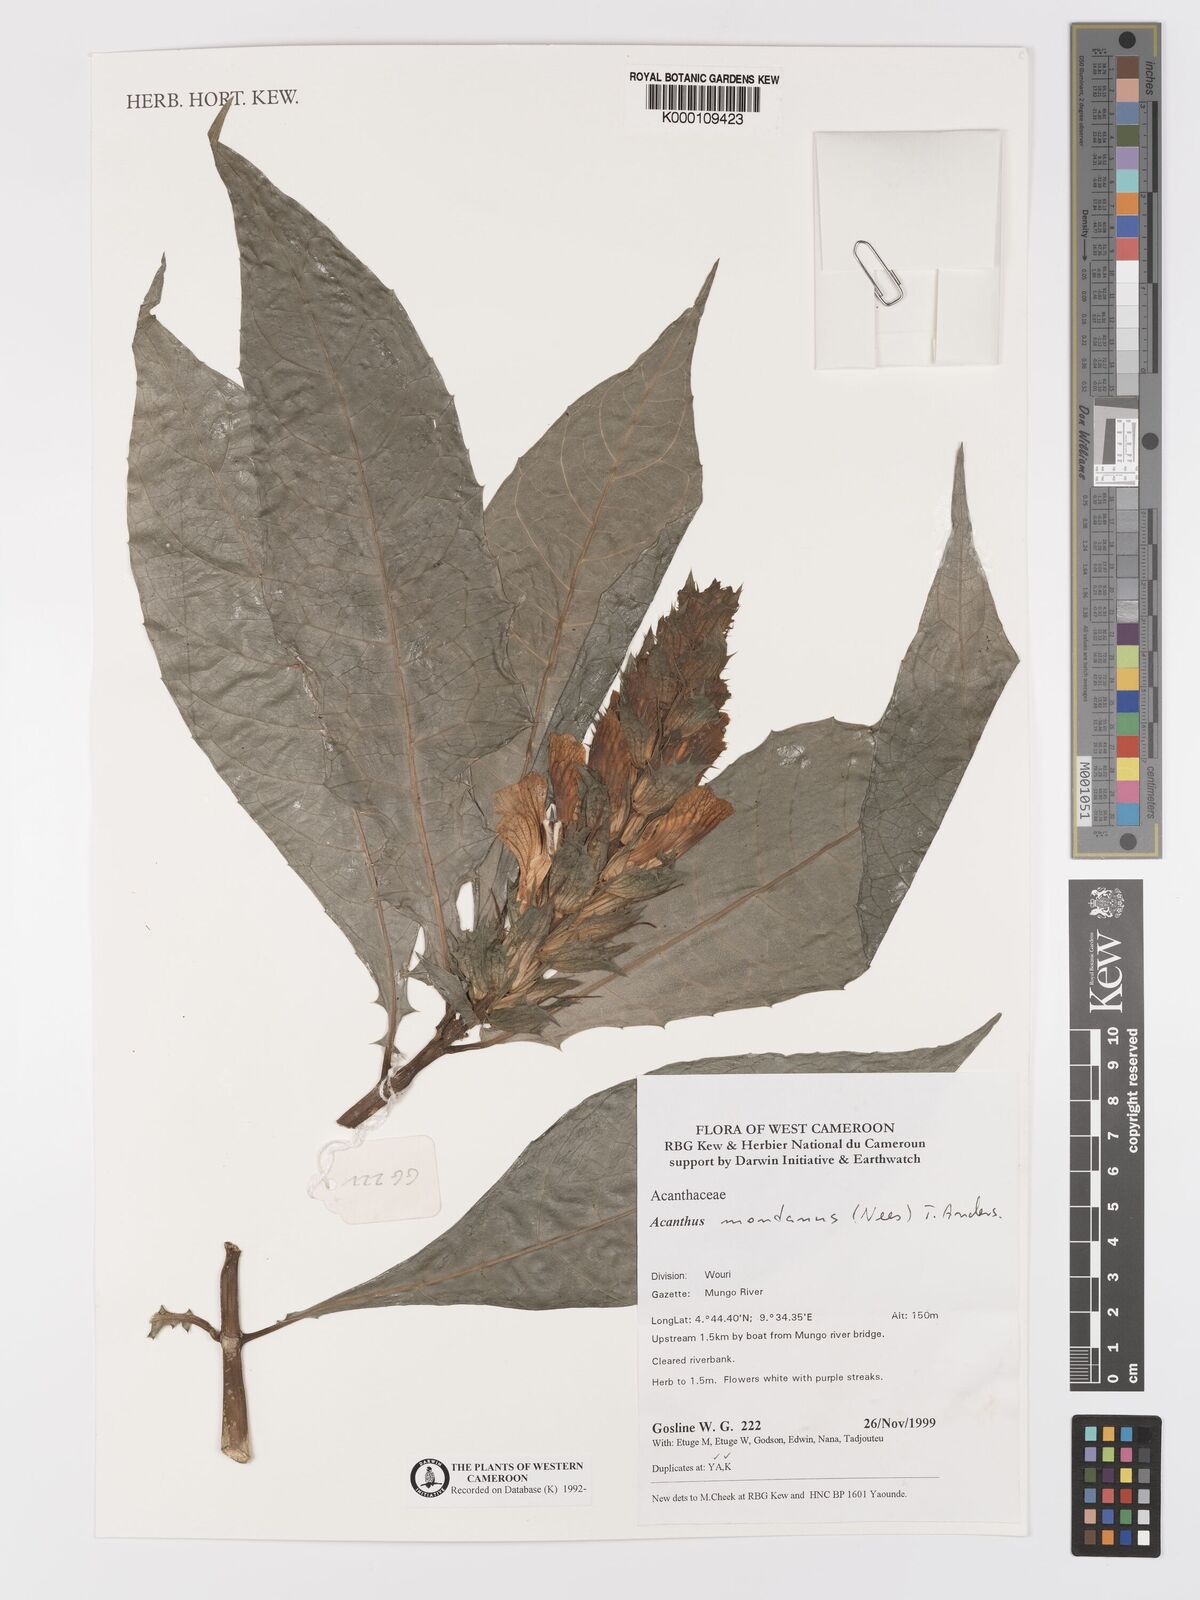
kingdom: Plantae
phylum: Tracheophyta
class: Magnoliopsida
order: Lamiales
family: Acanthaceae
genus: Acanthus
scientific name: Acanthus montanus
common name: Mountain thistle
